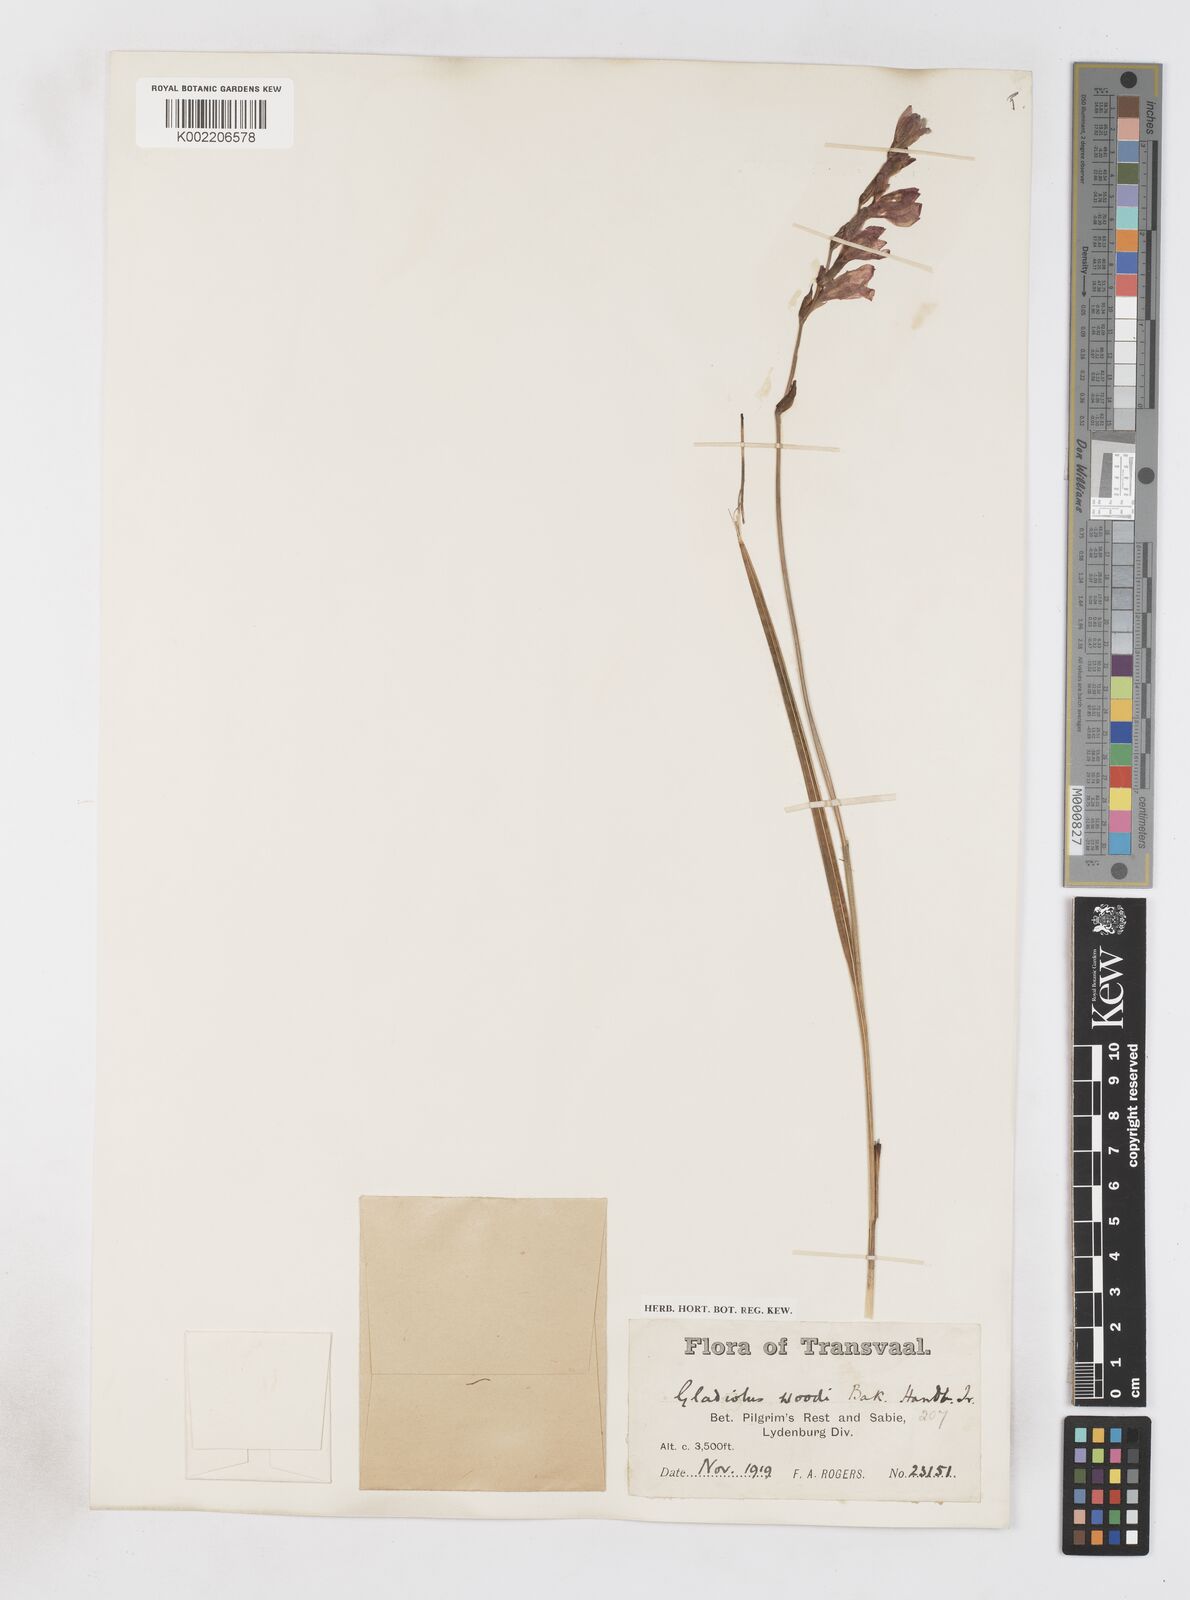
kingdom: Plantae
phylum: Tracheophyta
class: Liliopsida
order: Asparagales
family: Iridaceae
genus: Gladiolus
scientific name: Gladiolus pubigerus
